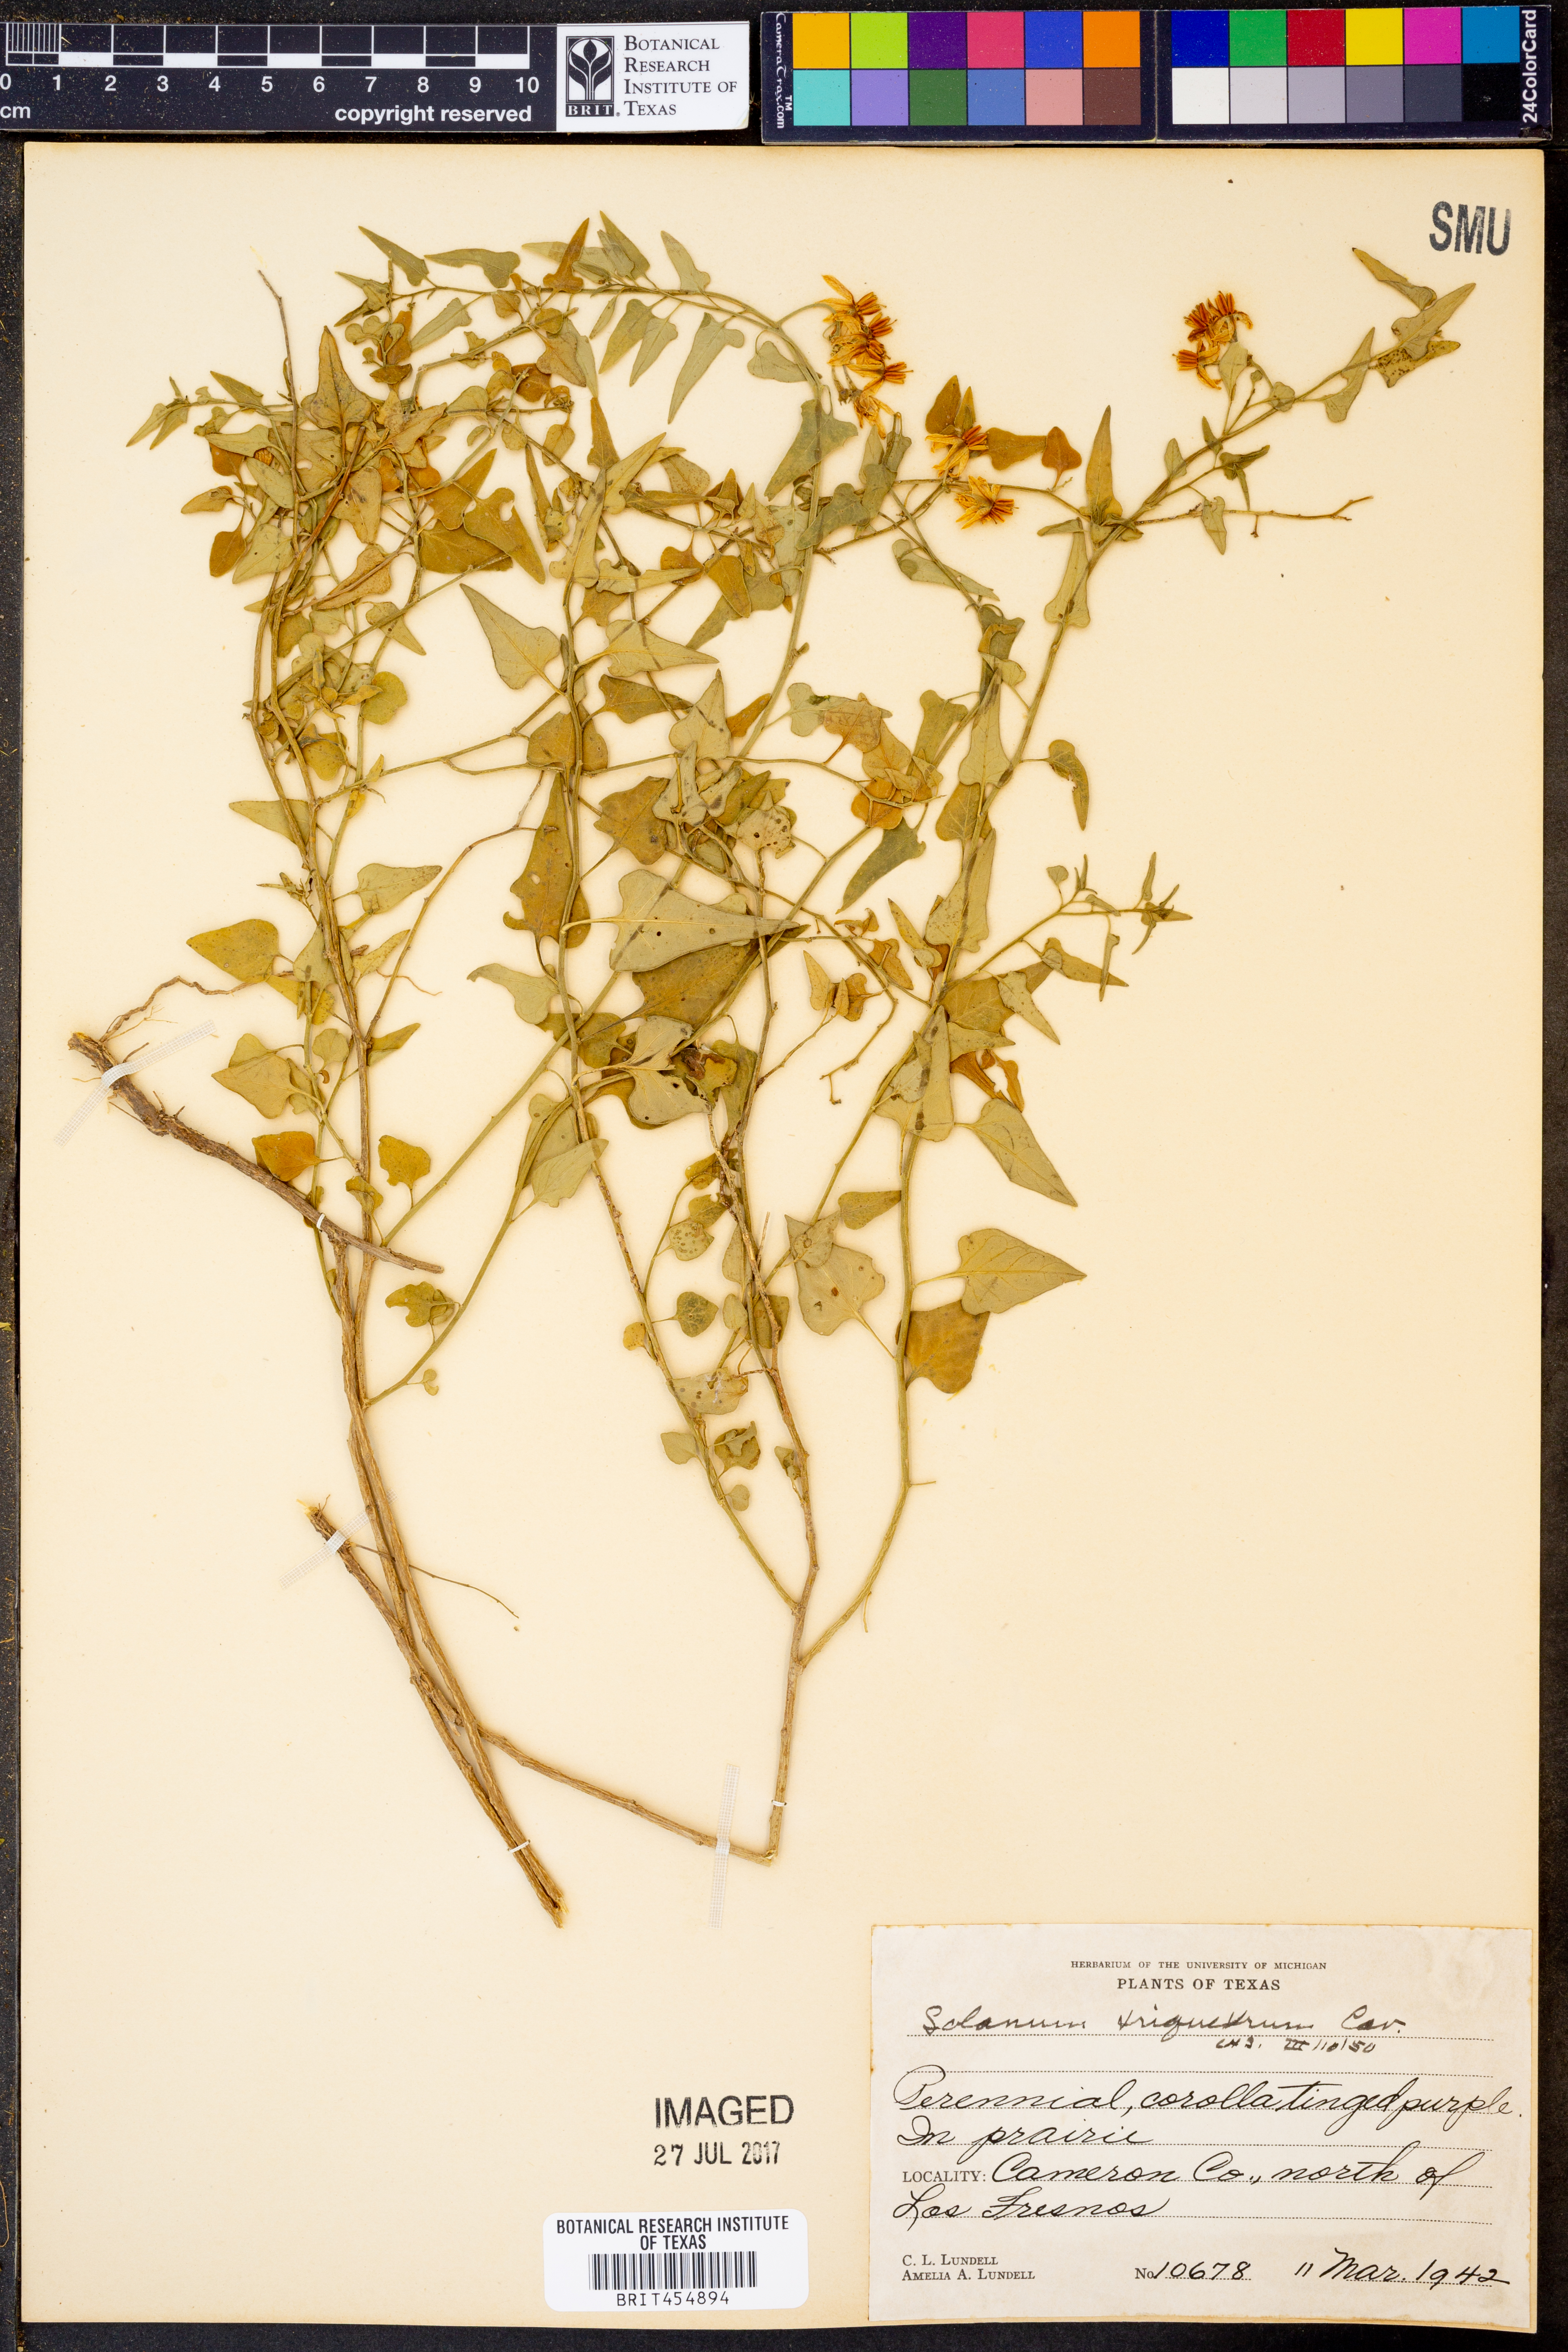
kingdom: Plantae
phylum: Tracheophyta
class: Magnoliopsida
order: Solanales
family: Solanaceae
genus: Solanum
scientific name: Solanum triquetrum
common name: Texas nightshade
